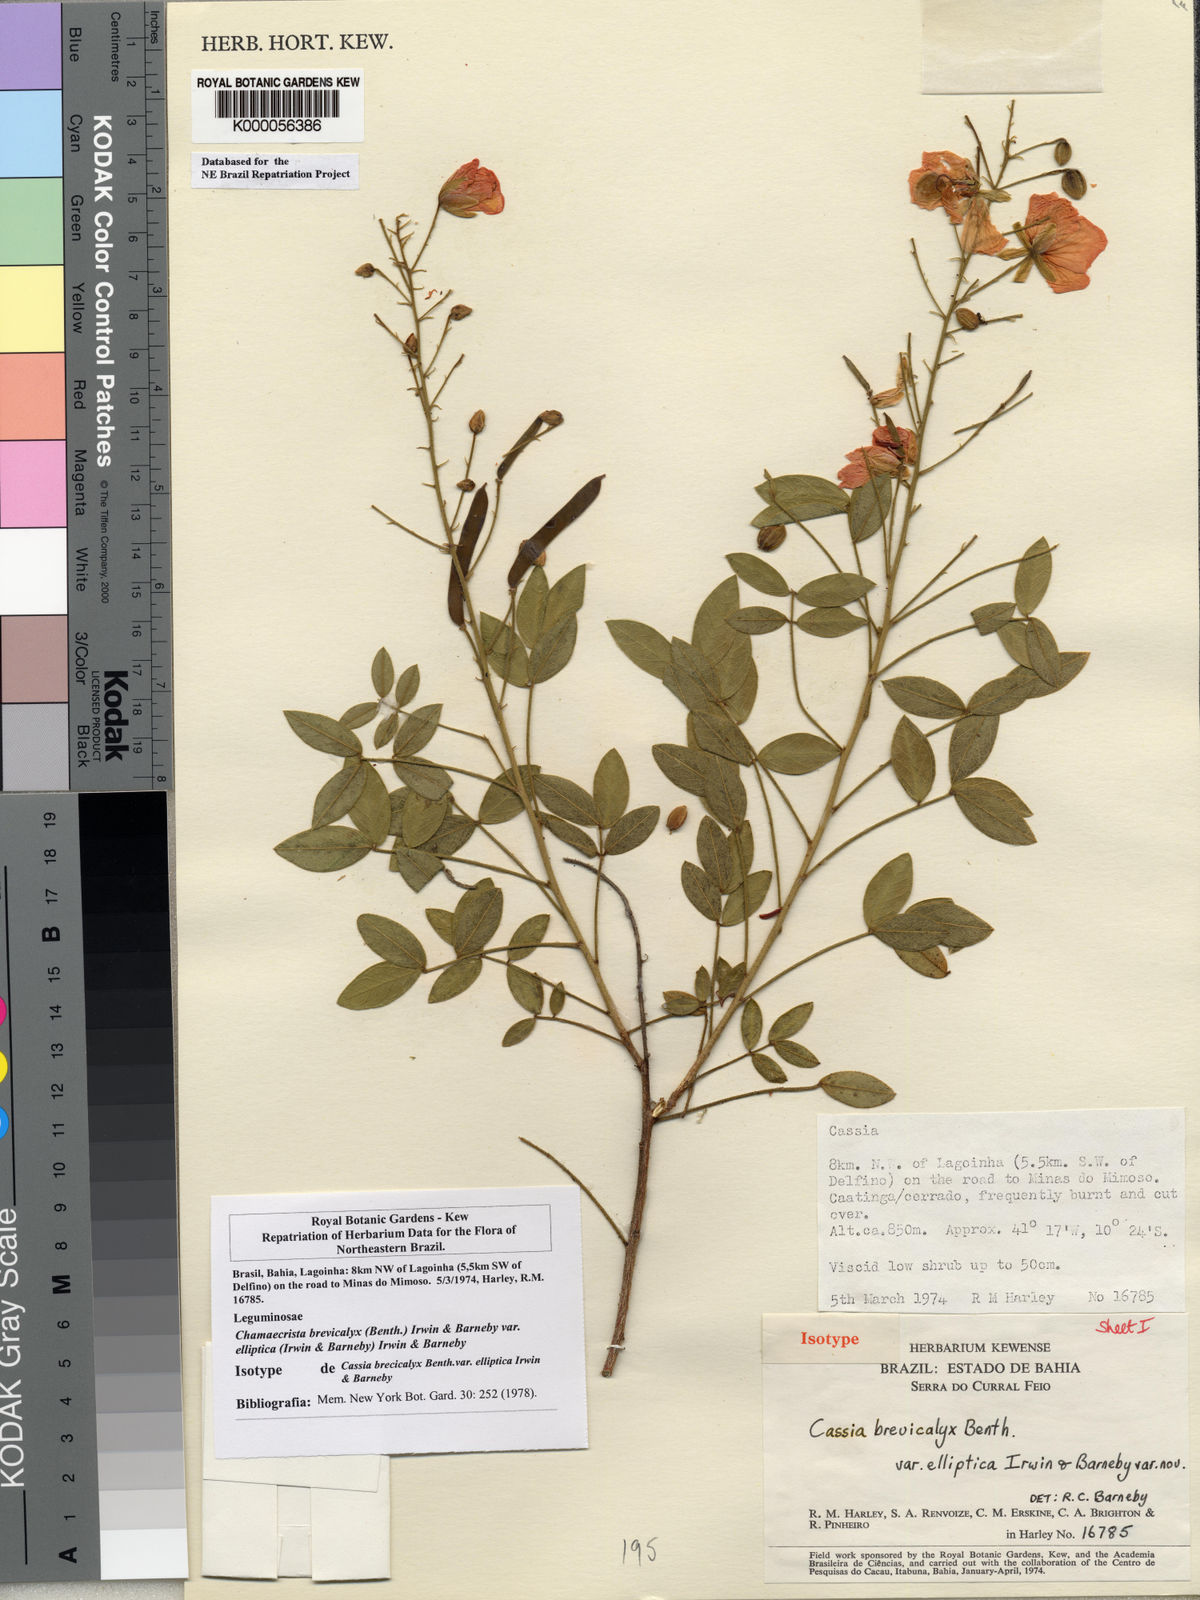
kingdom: Plantae
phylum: Tracheophyta
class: Magnoliopsida
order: Fabales
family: Fabaceae
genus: Chamaecrista
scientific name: Chamaecrista brevicalyx
